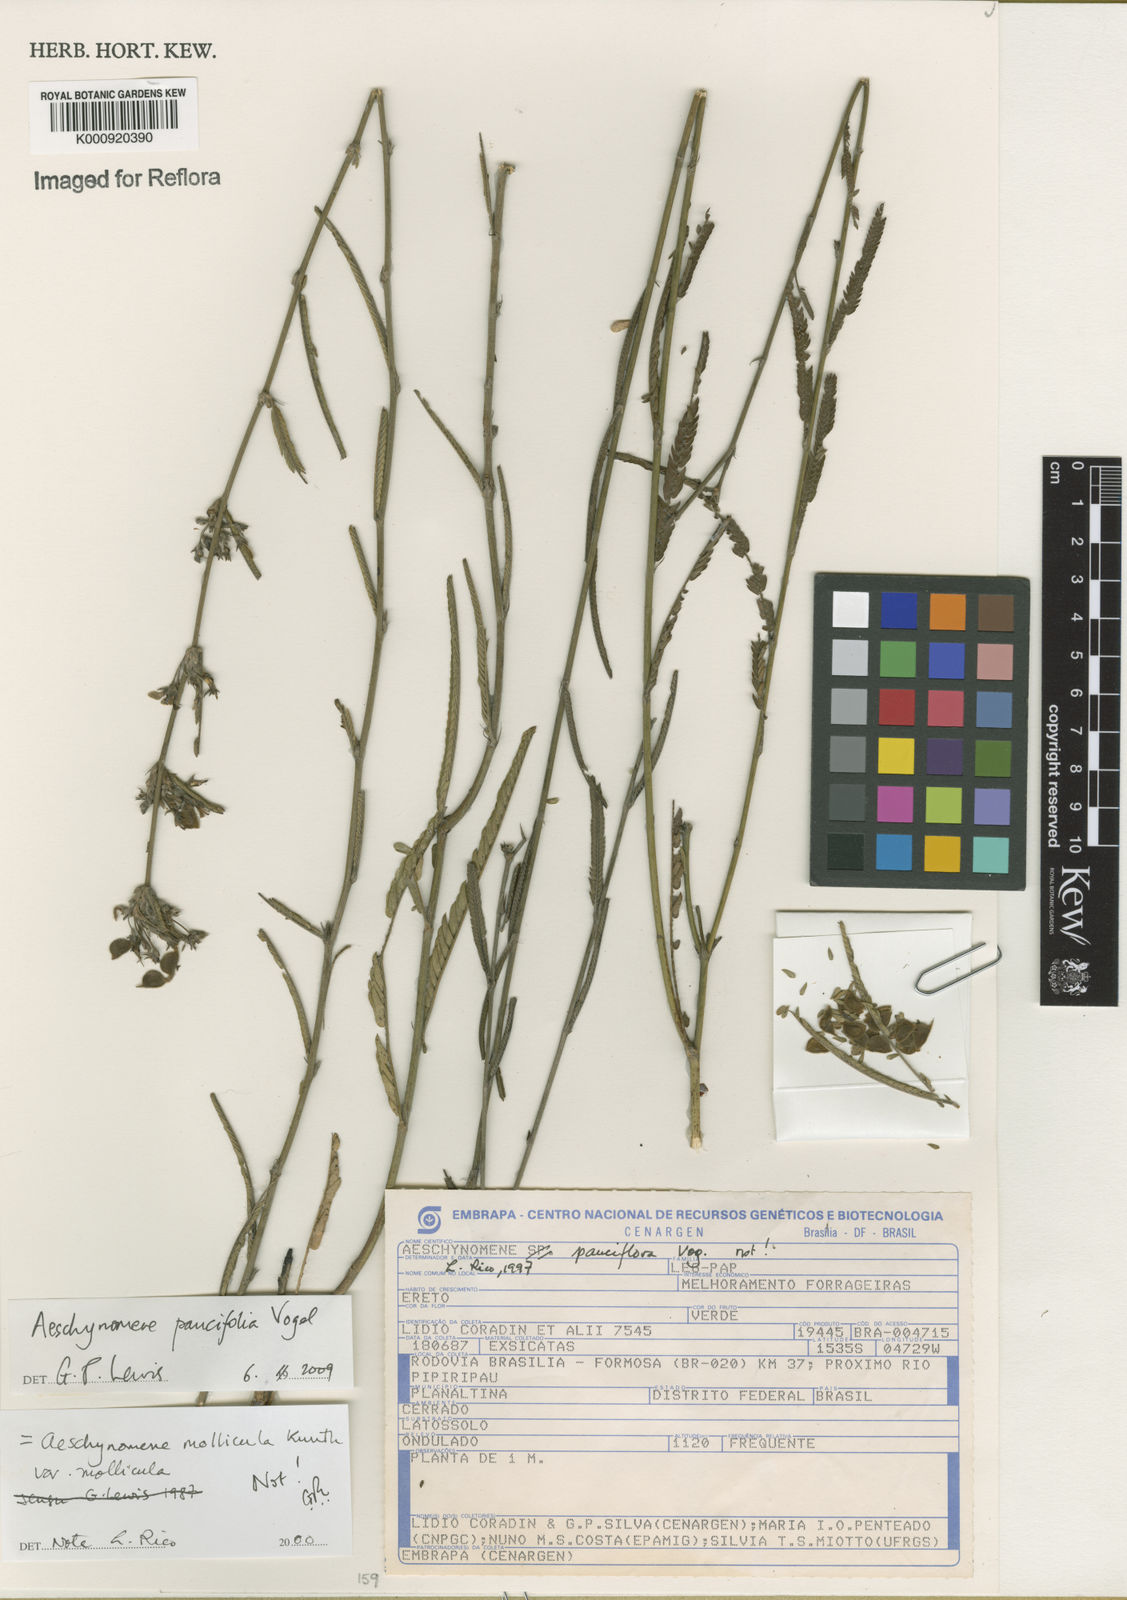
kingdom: Plantae
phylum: Tracheophyta
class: Magnoliopsida
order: Fabales
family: Fabaceae
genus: Ctenodon
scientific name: Ctenodon paucifolius
